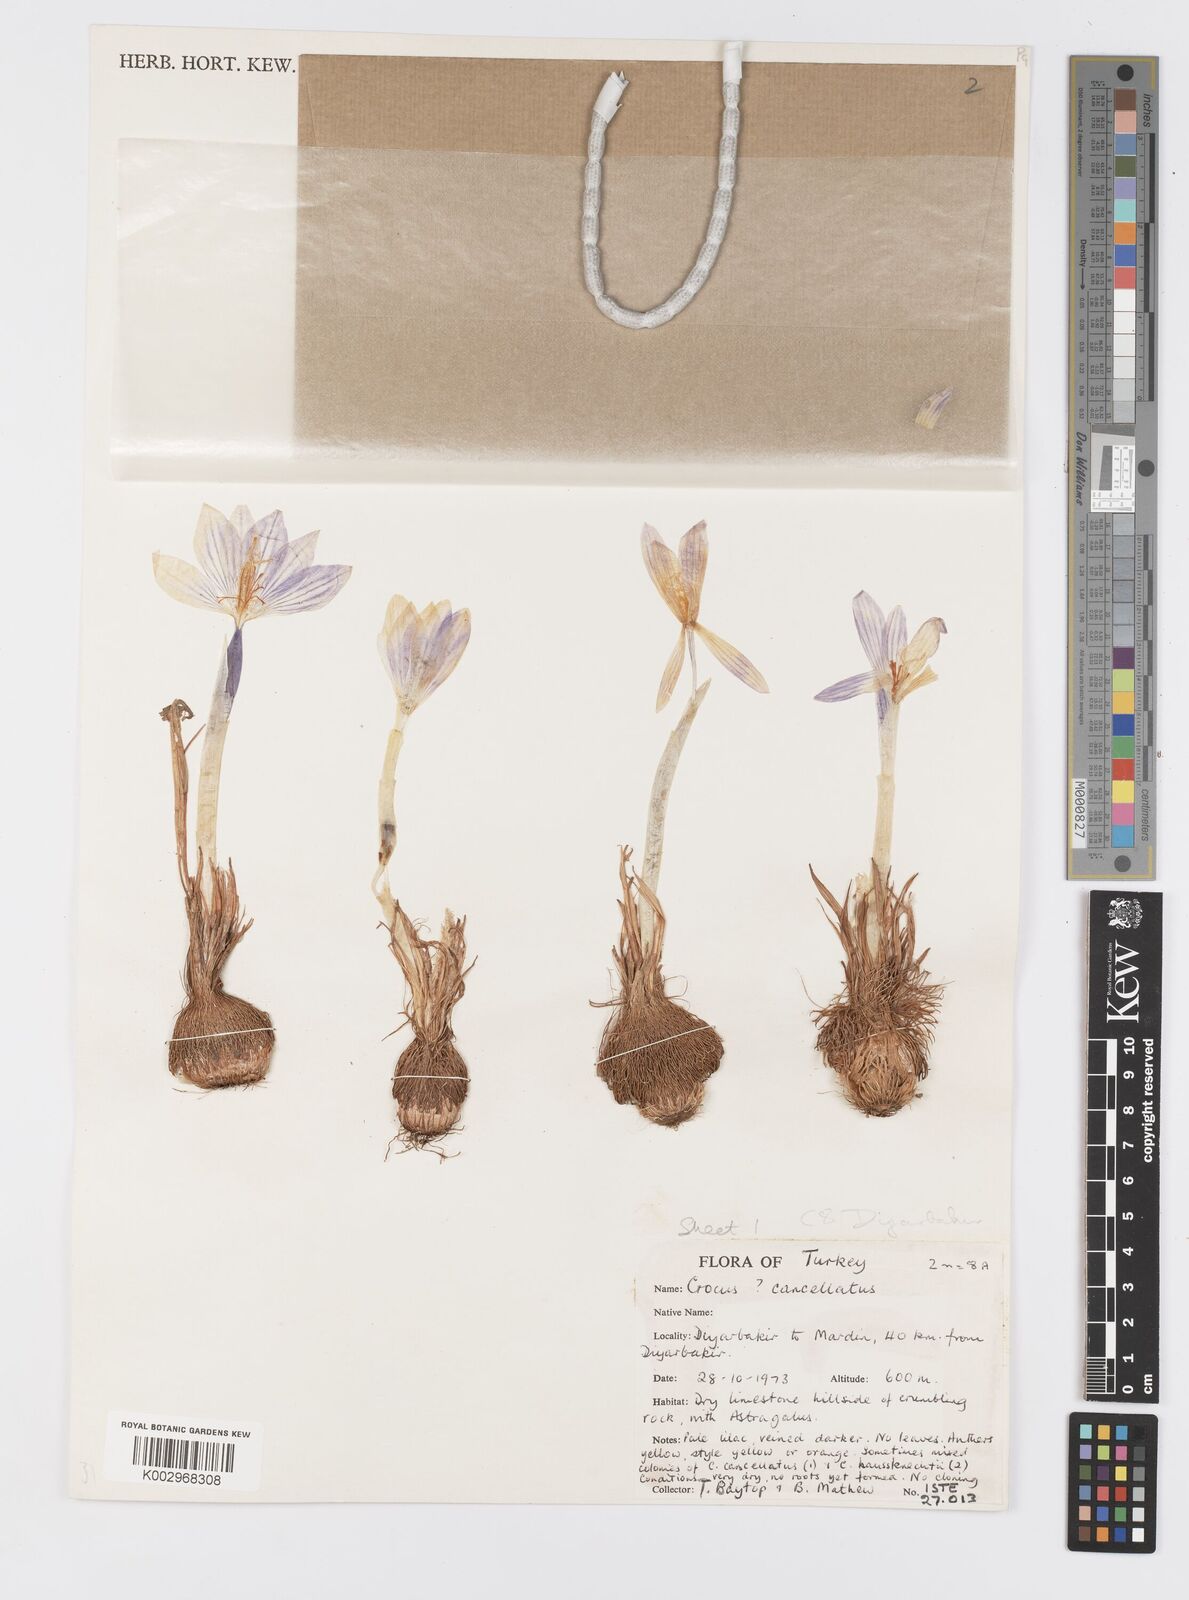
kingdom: Plantae
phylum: Tracheophyta
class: Liliopsida
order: Asparagales
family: Iridaceae
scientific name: Iridaceae
